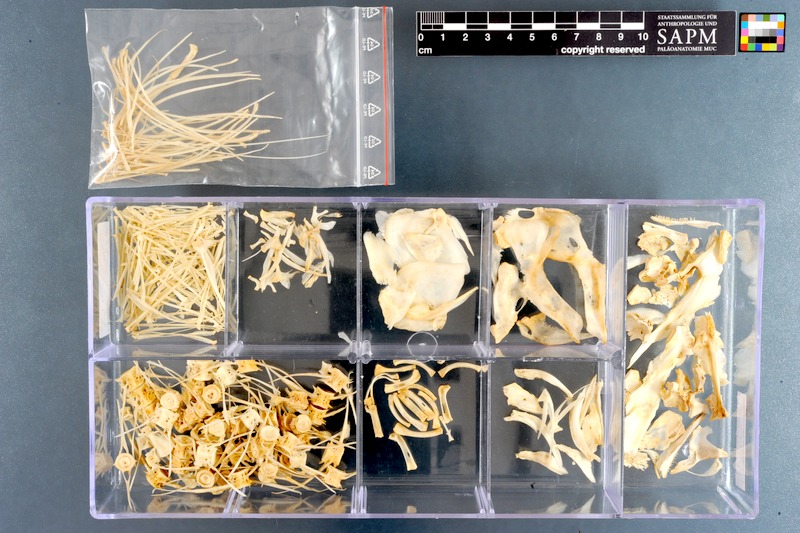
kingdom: Animalia
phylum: Chordata
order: Osteoglossiformes
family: Mormyridae
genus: Mormyrus
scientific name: Mormyrus kannume
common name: Elephant-snout fish
